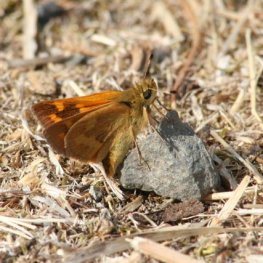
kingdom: Animalia
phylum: Arthropoda
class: Insecta
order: Lepidoptera
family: Hesperiidae
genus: Ochlodes
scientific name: Ochlodes sylvanoides
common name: Woodland Skipper
